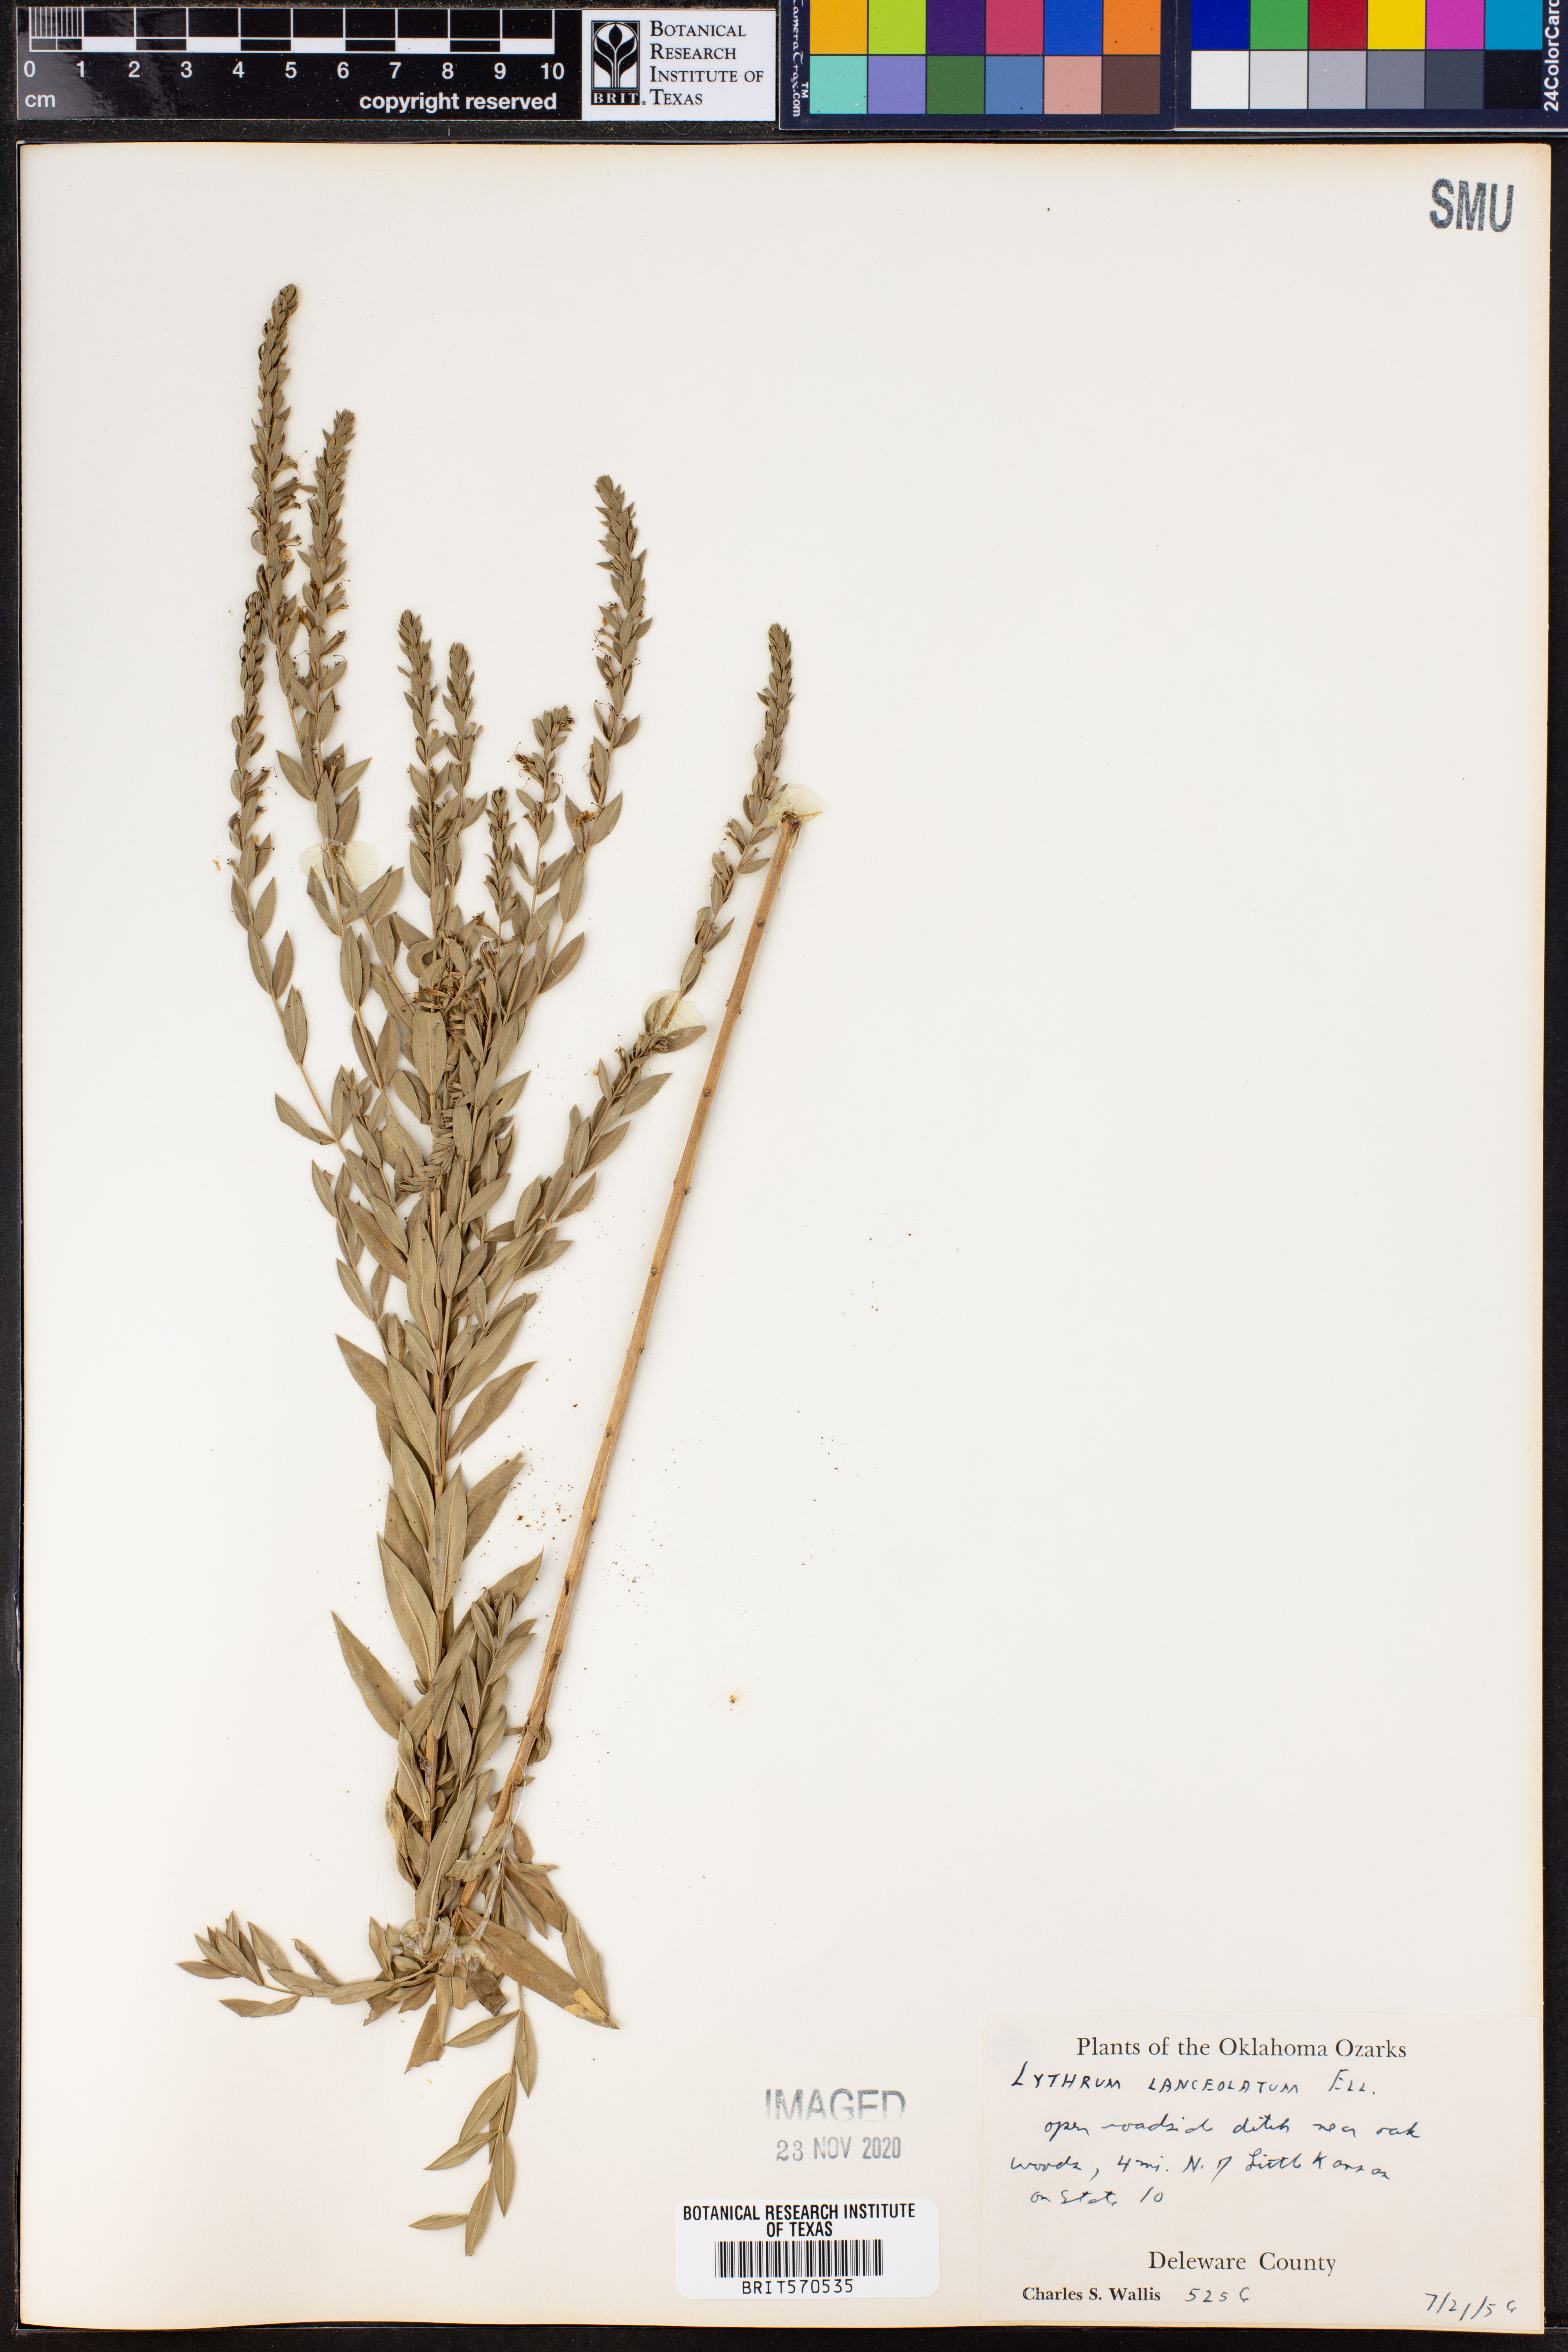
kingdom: Plantae
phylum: Tracheophyta
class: Magnoliopsida
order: Myrtales
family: Lythraceae
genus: Lythrum
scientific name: Lythrum alatum
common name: Winged loosestrife
